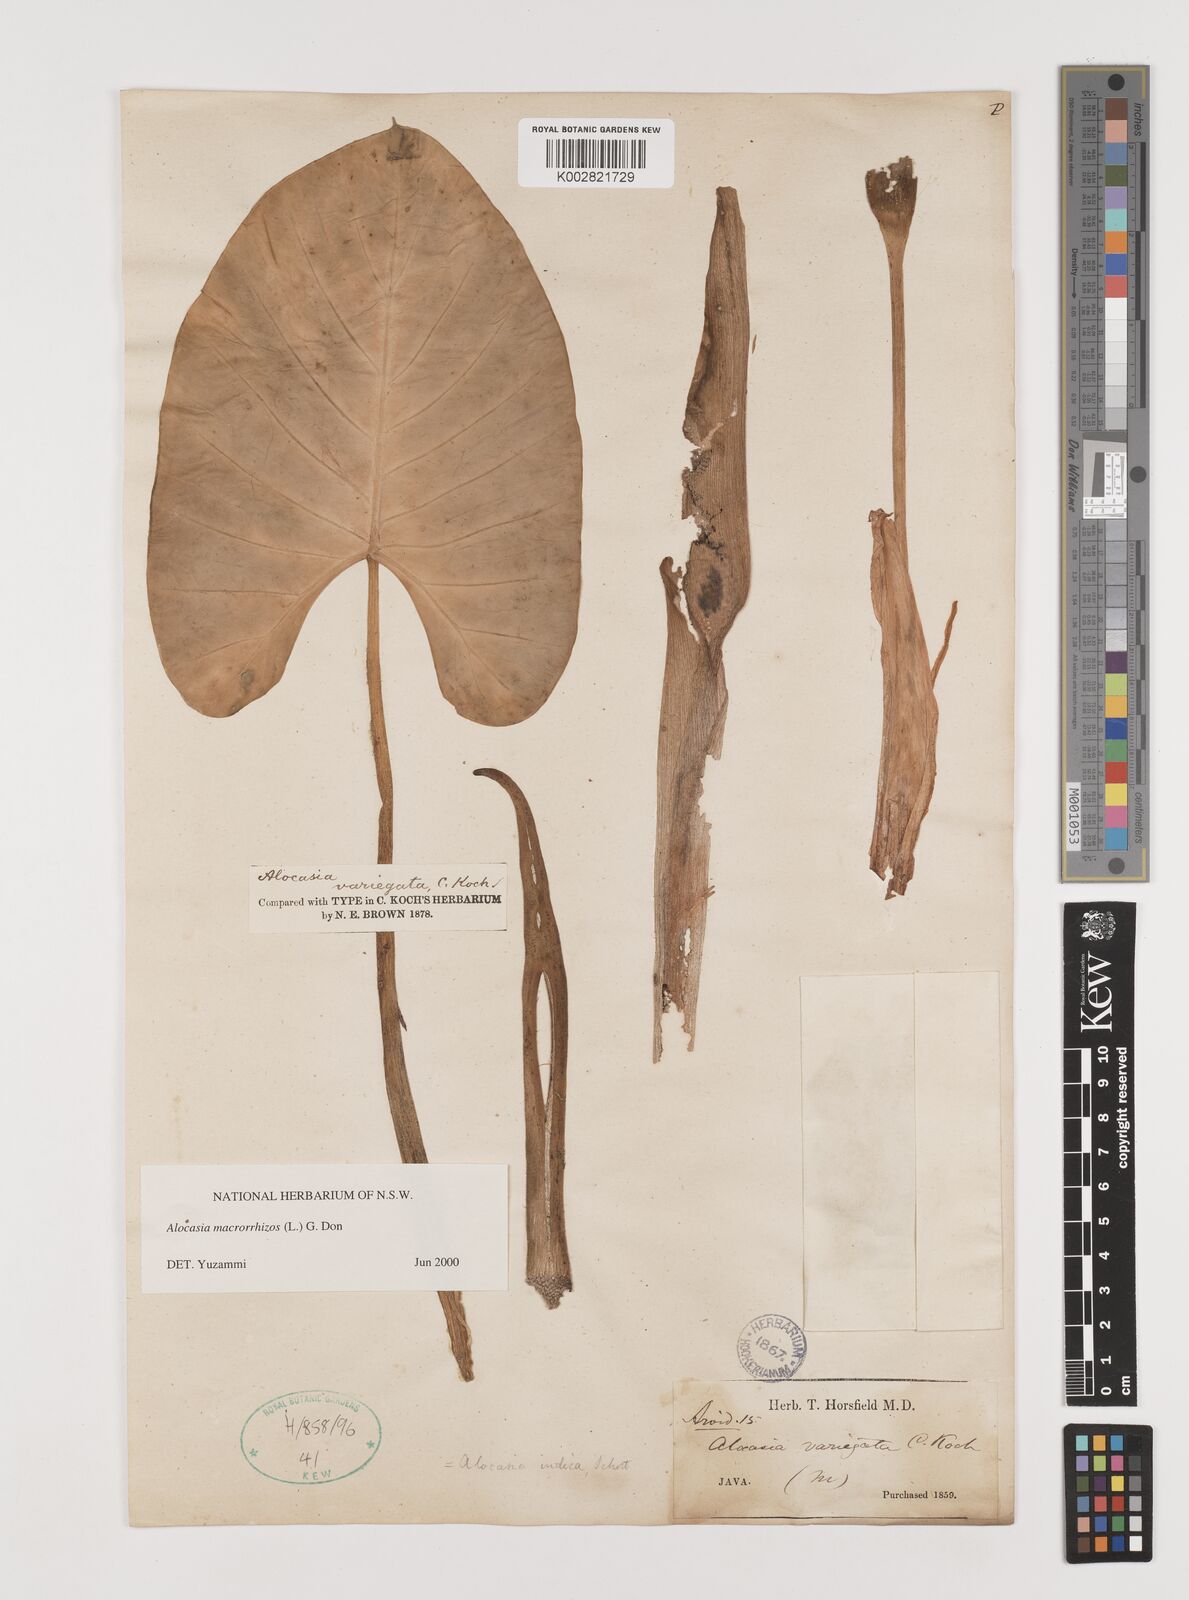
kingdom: Plantae
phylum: Tracheophyta
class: Liliopsida
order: Alismatales
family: Araceae
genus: Alocasia
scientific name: Alocasia macrorrhizos
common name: Giant taro
